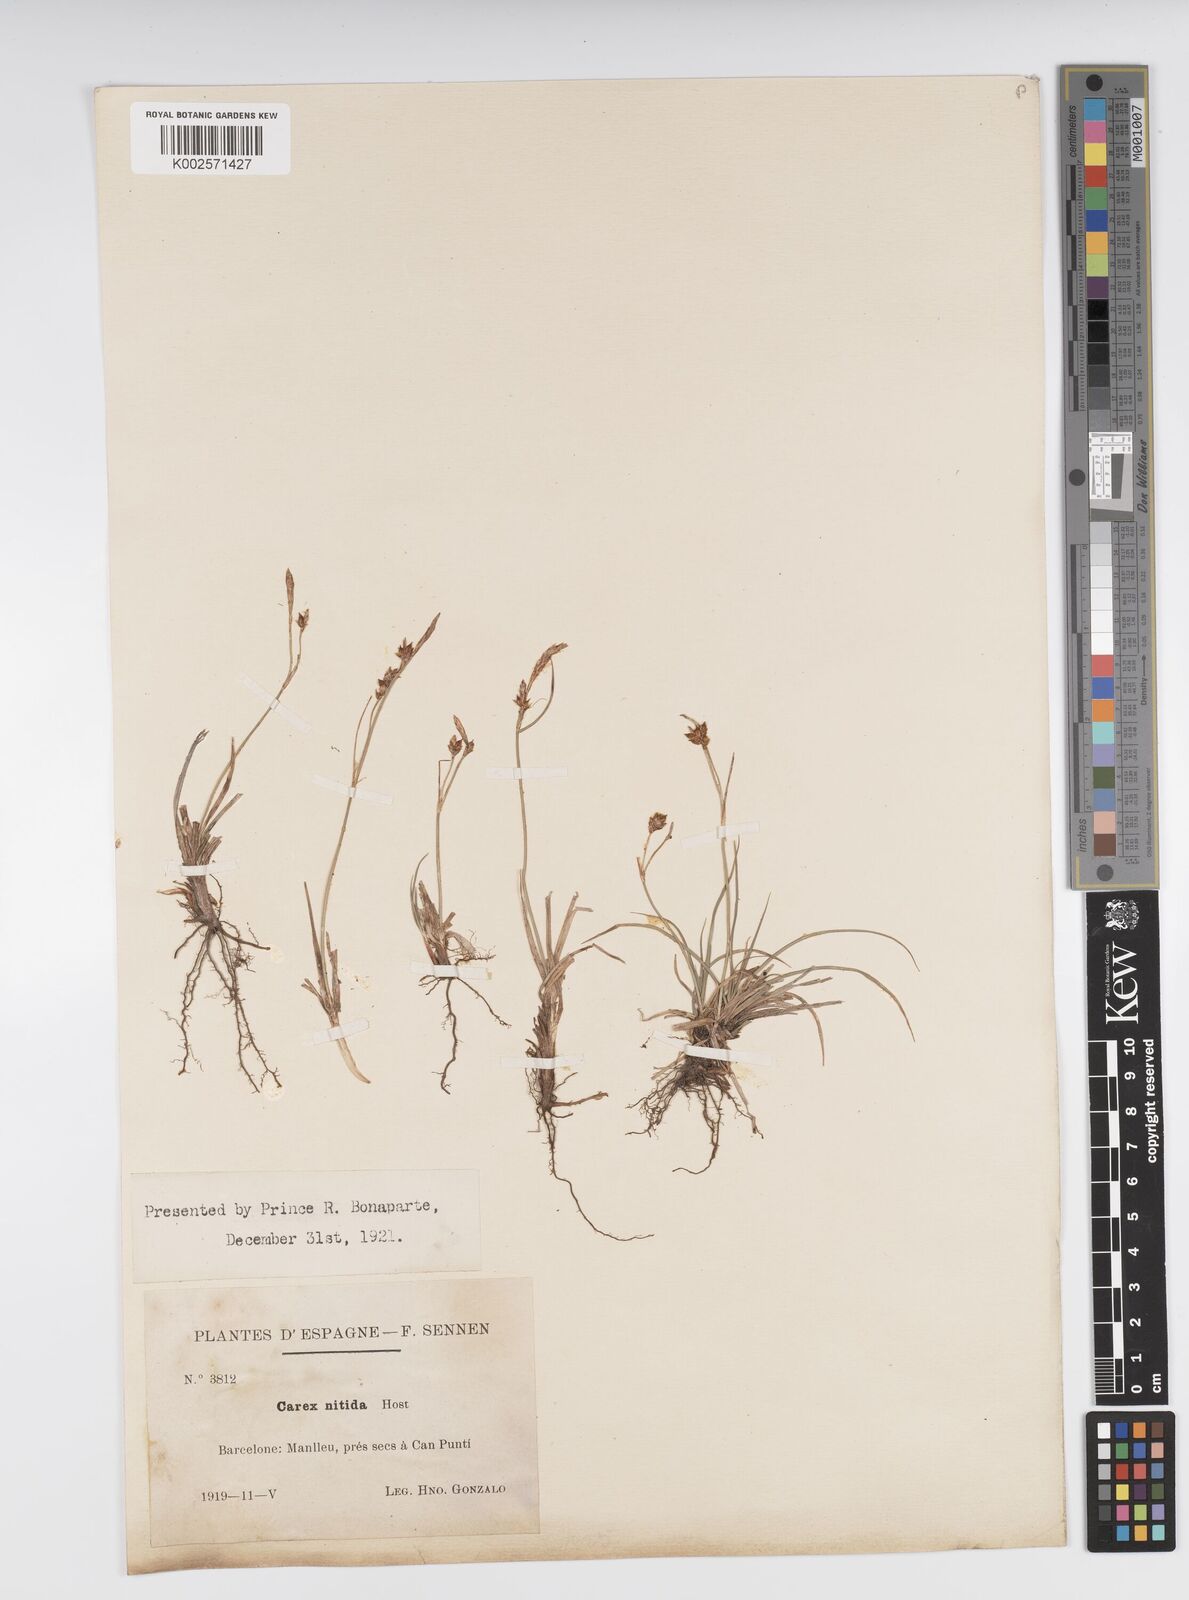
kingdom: Plantae
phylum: Tracheophyta
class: Liliopsida
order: Poales
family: Cyperaceae
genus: Carex
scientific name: Carex liparocarpos
